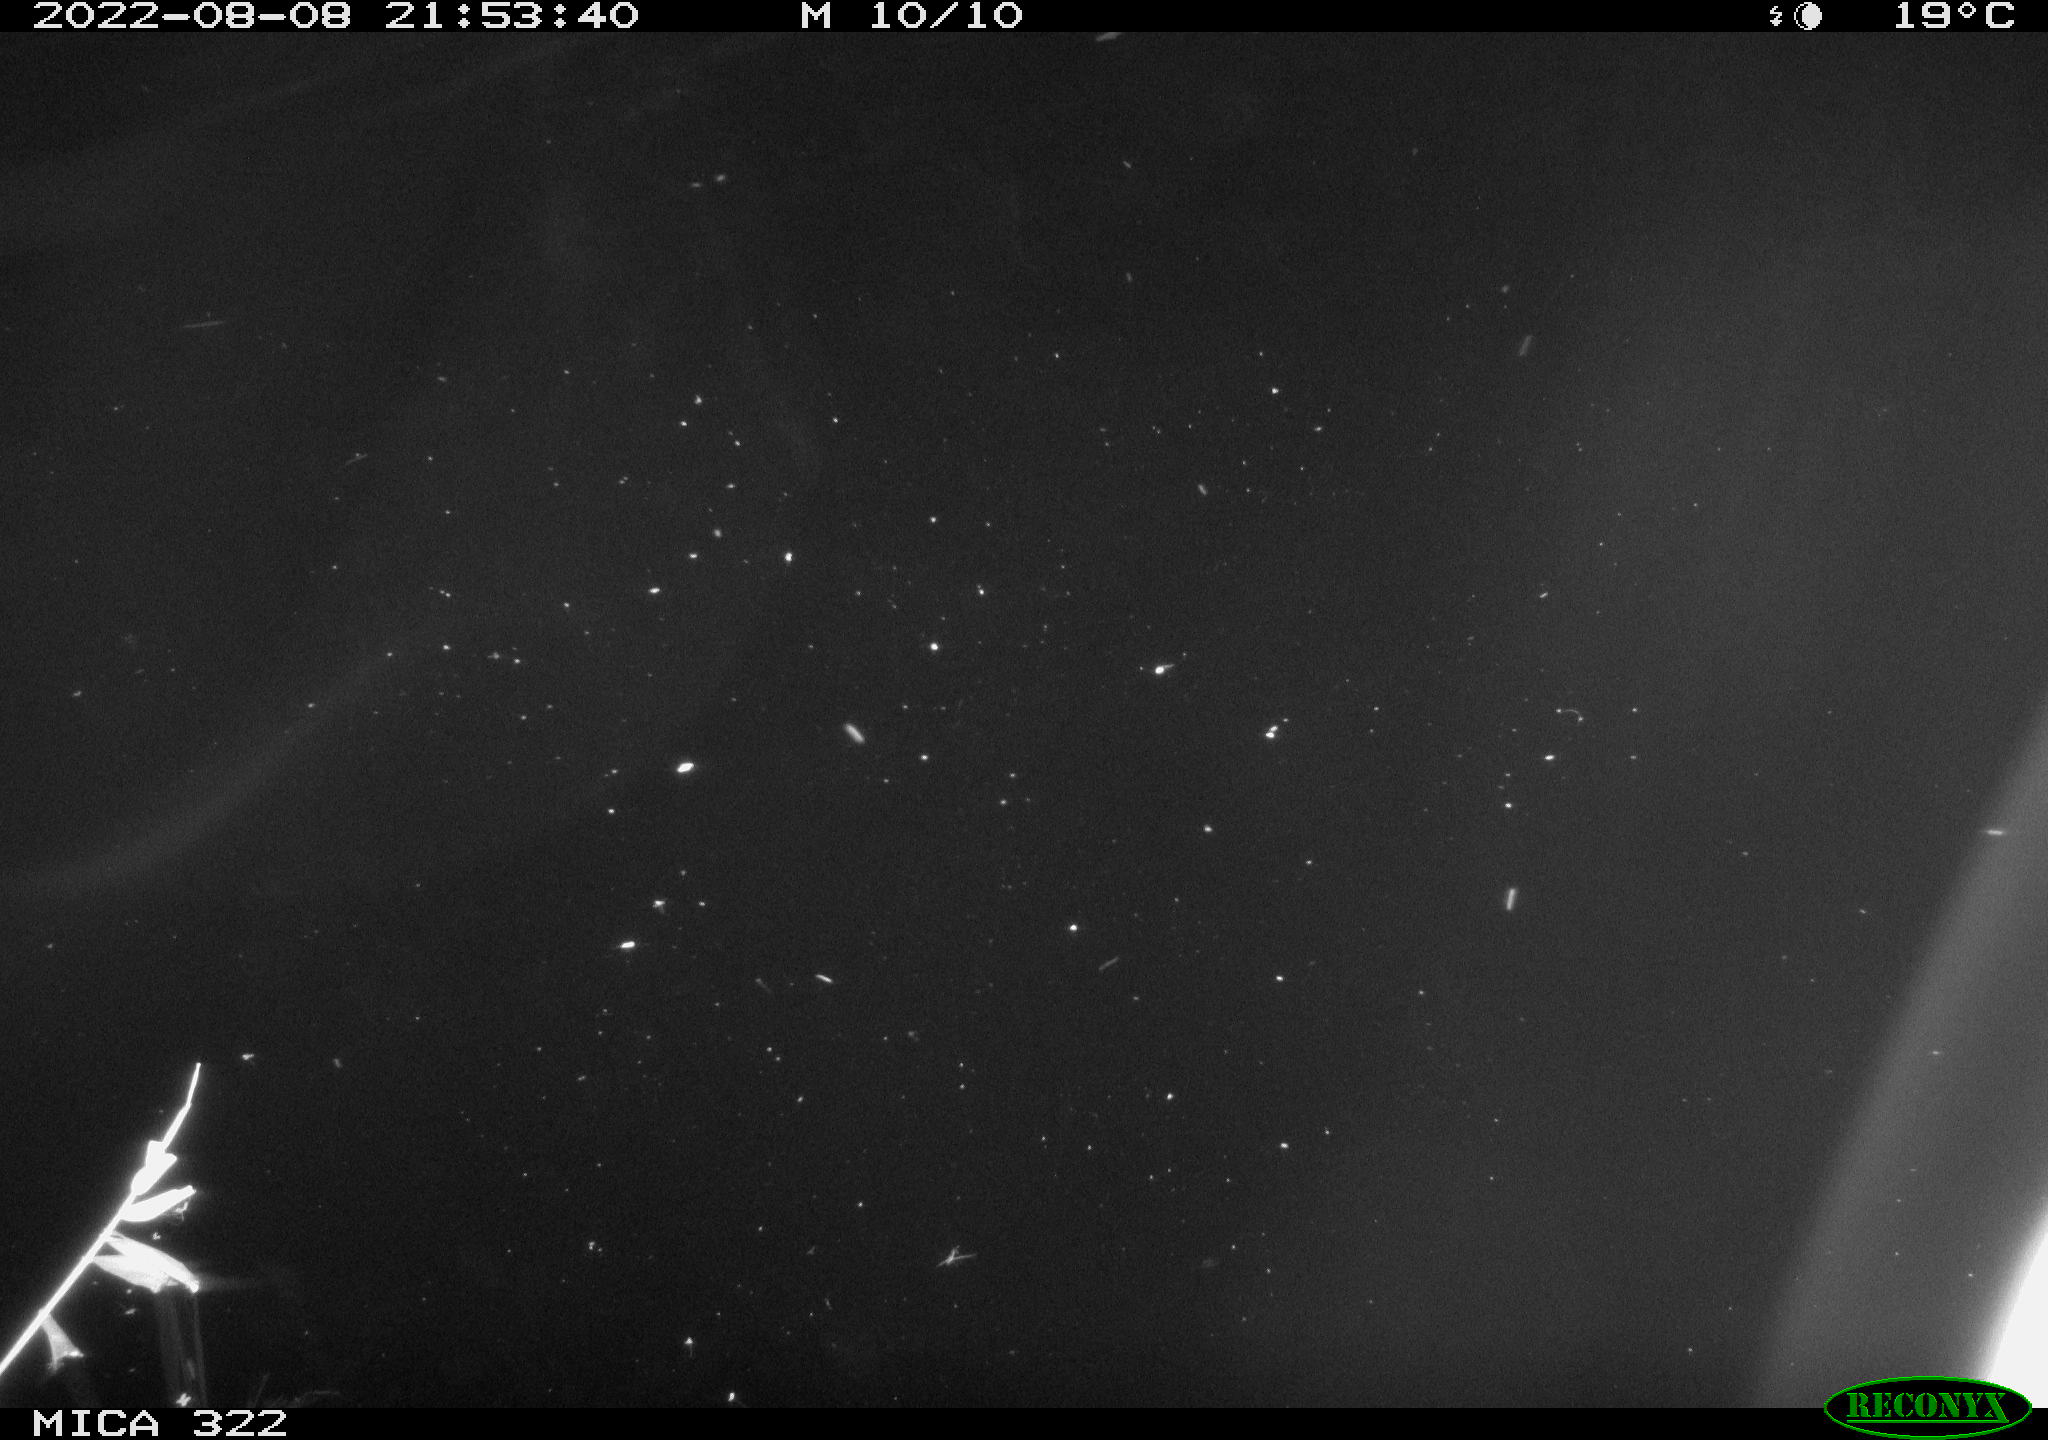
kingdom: Animalia
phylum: Chordata
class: Aves
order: Gruiformes
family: Rallidae
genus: Gallinula
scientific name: Gallinula chloropus
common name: Common moorhen
